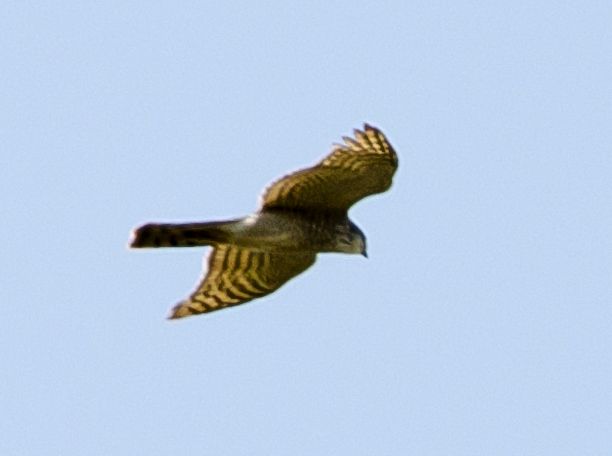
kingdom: Animalia
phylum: Chordata
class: Aves
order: Accipitriformes
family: Accipitridae
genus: Accipiter
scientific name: Accipiter gentilis
